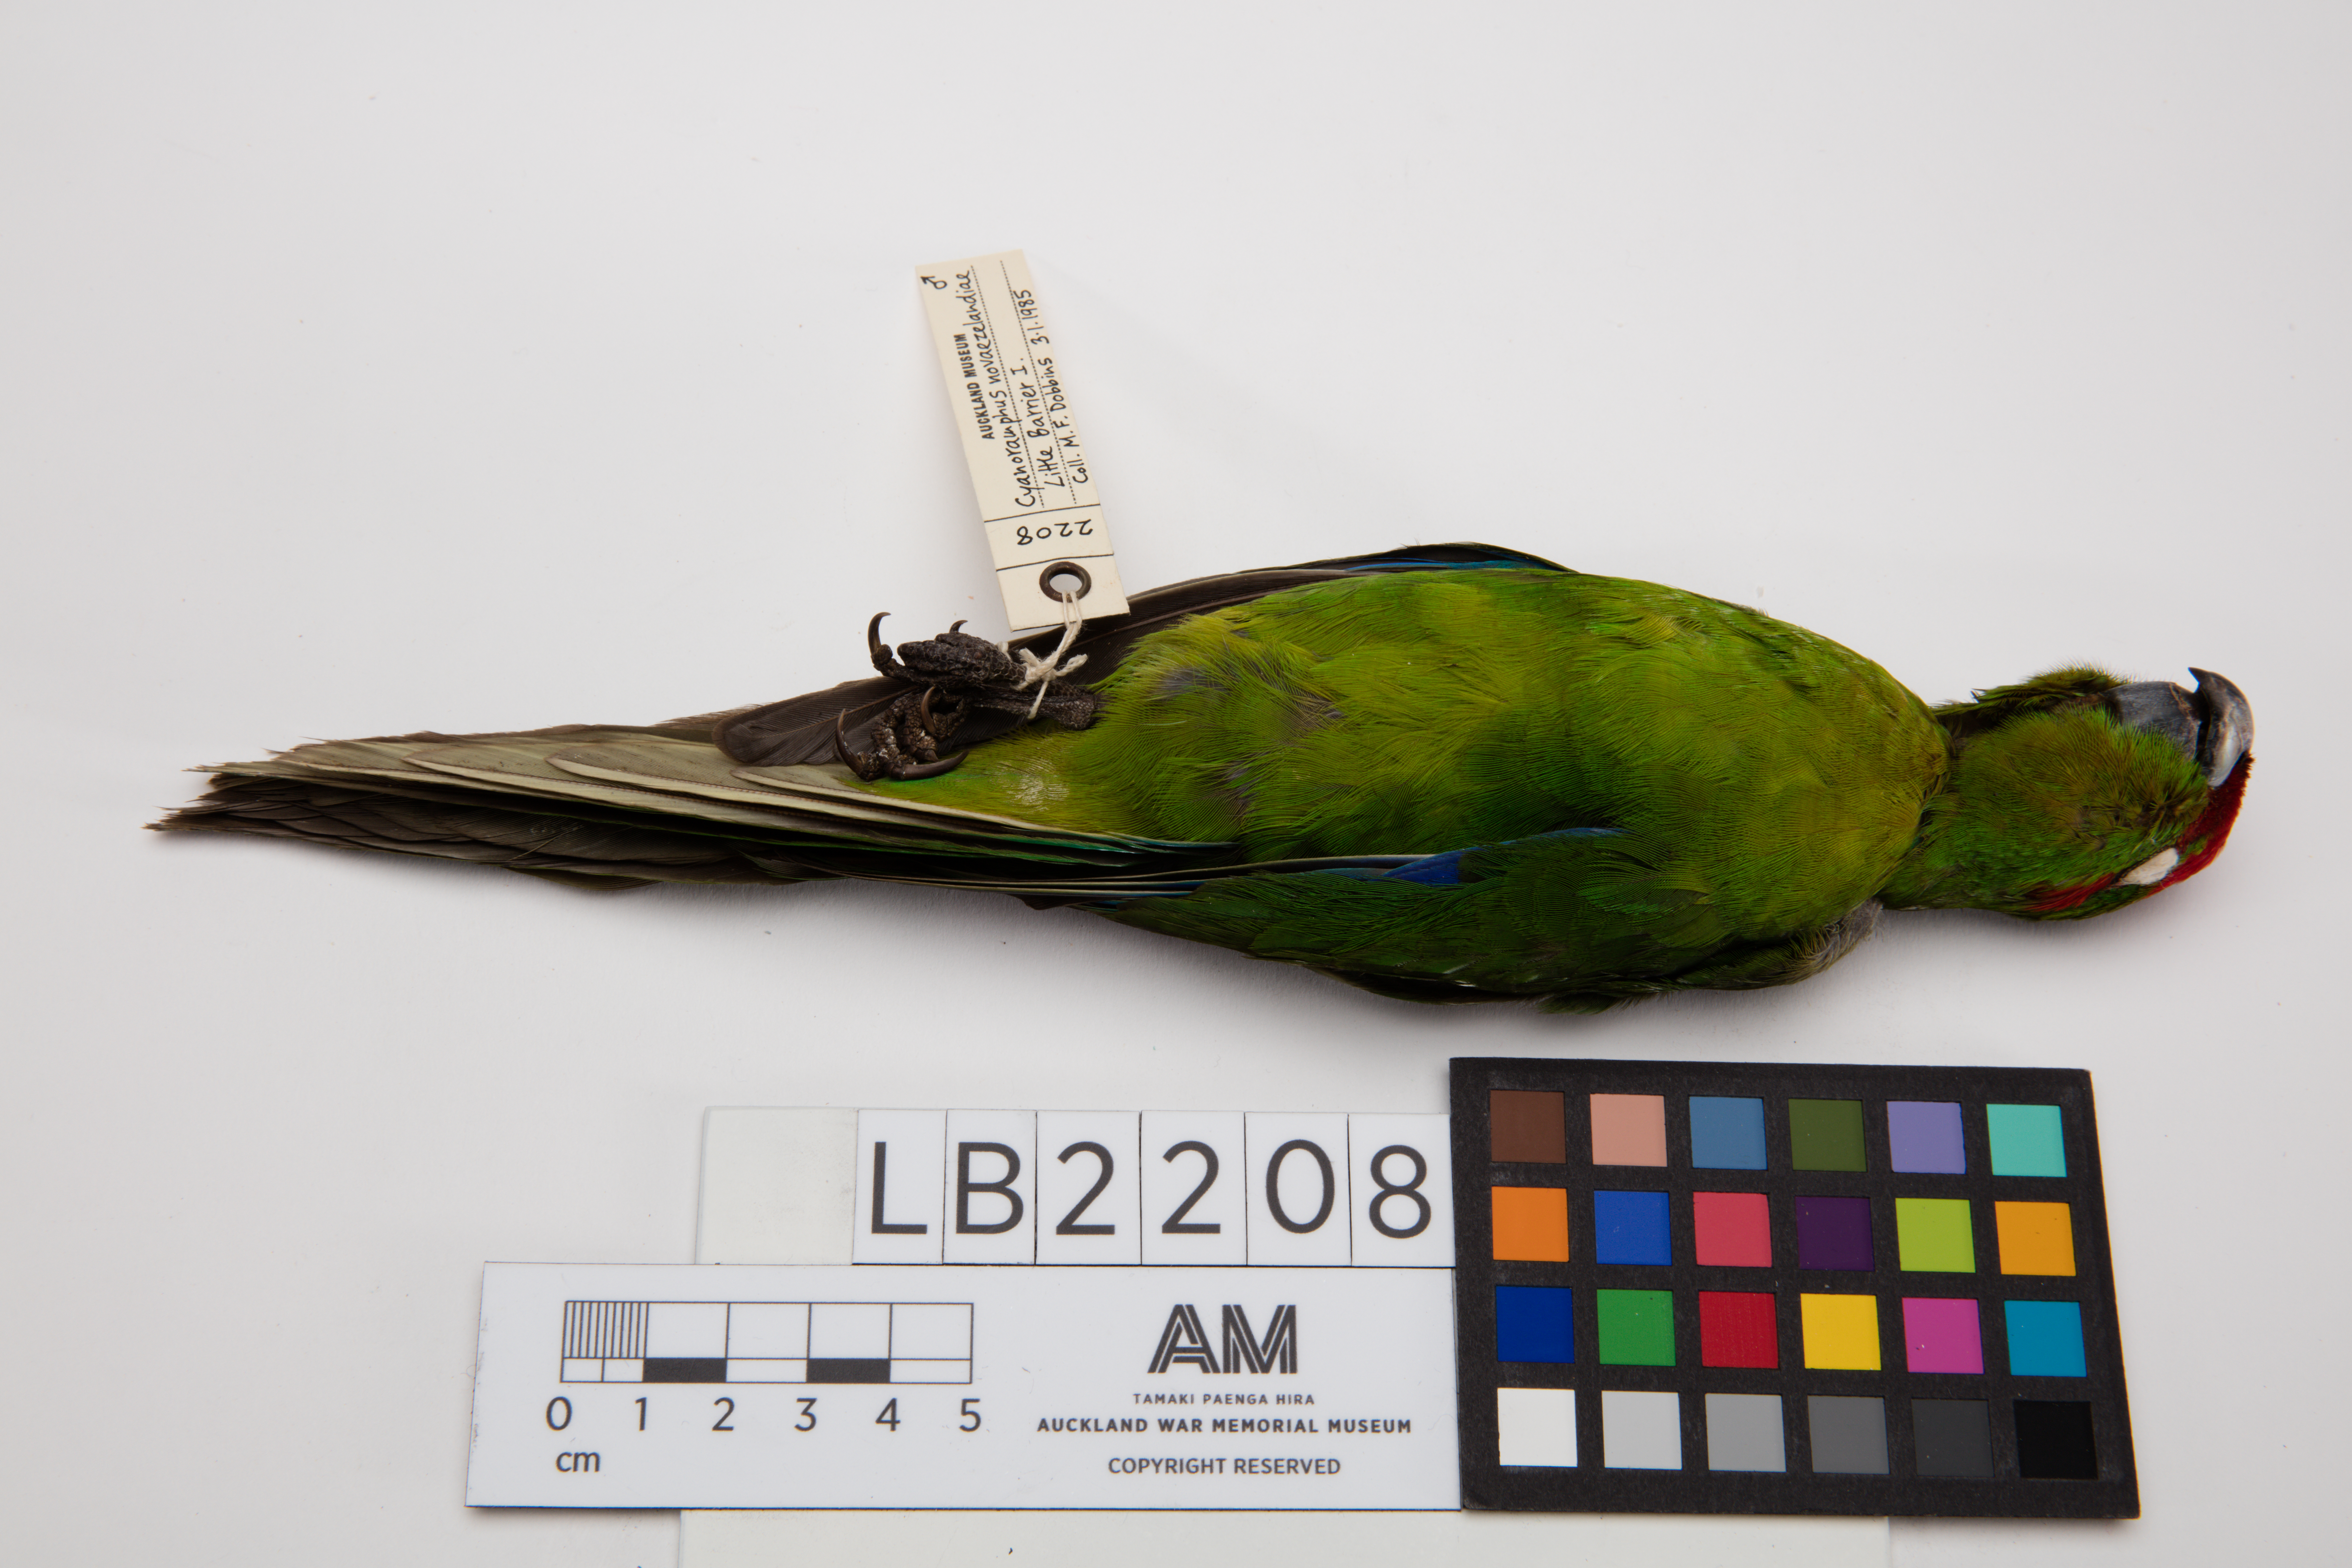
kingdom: Animalia
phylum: Chordata
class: Aves
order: Psittaciformes
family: Psittacidae
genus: Cyanoramphus
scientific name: Cyanoramphus novaezelandiae
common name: Red-fronted parakeet
